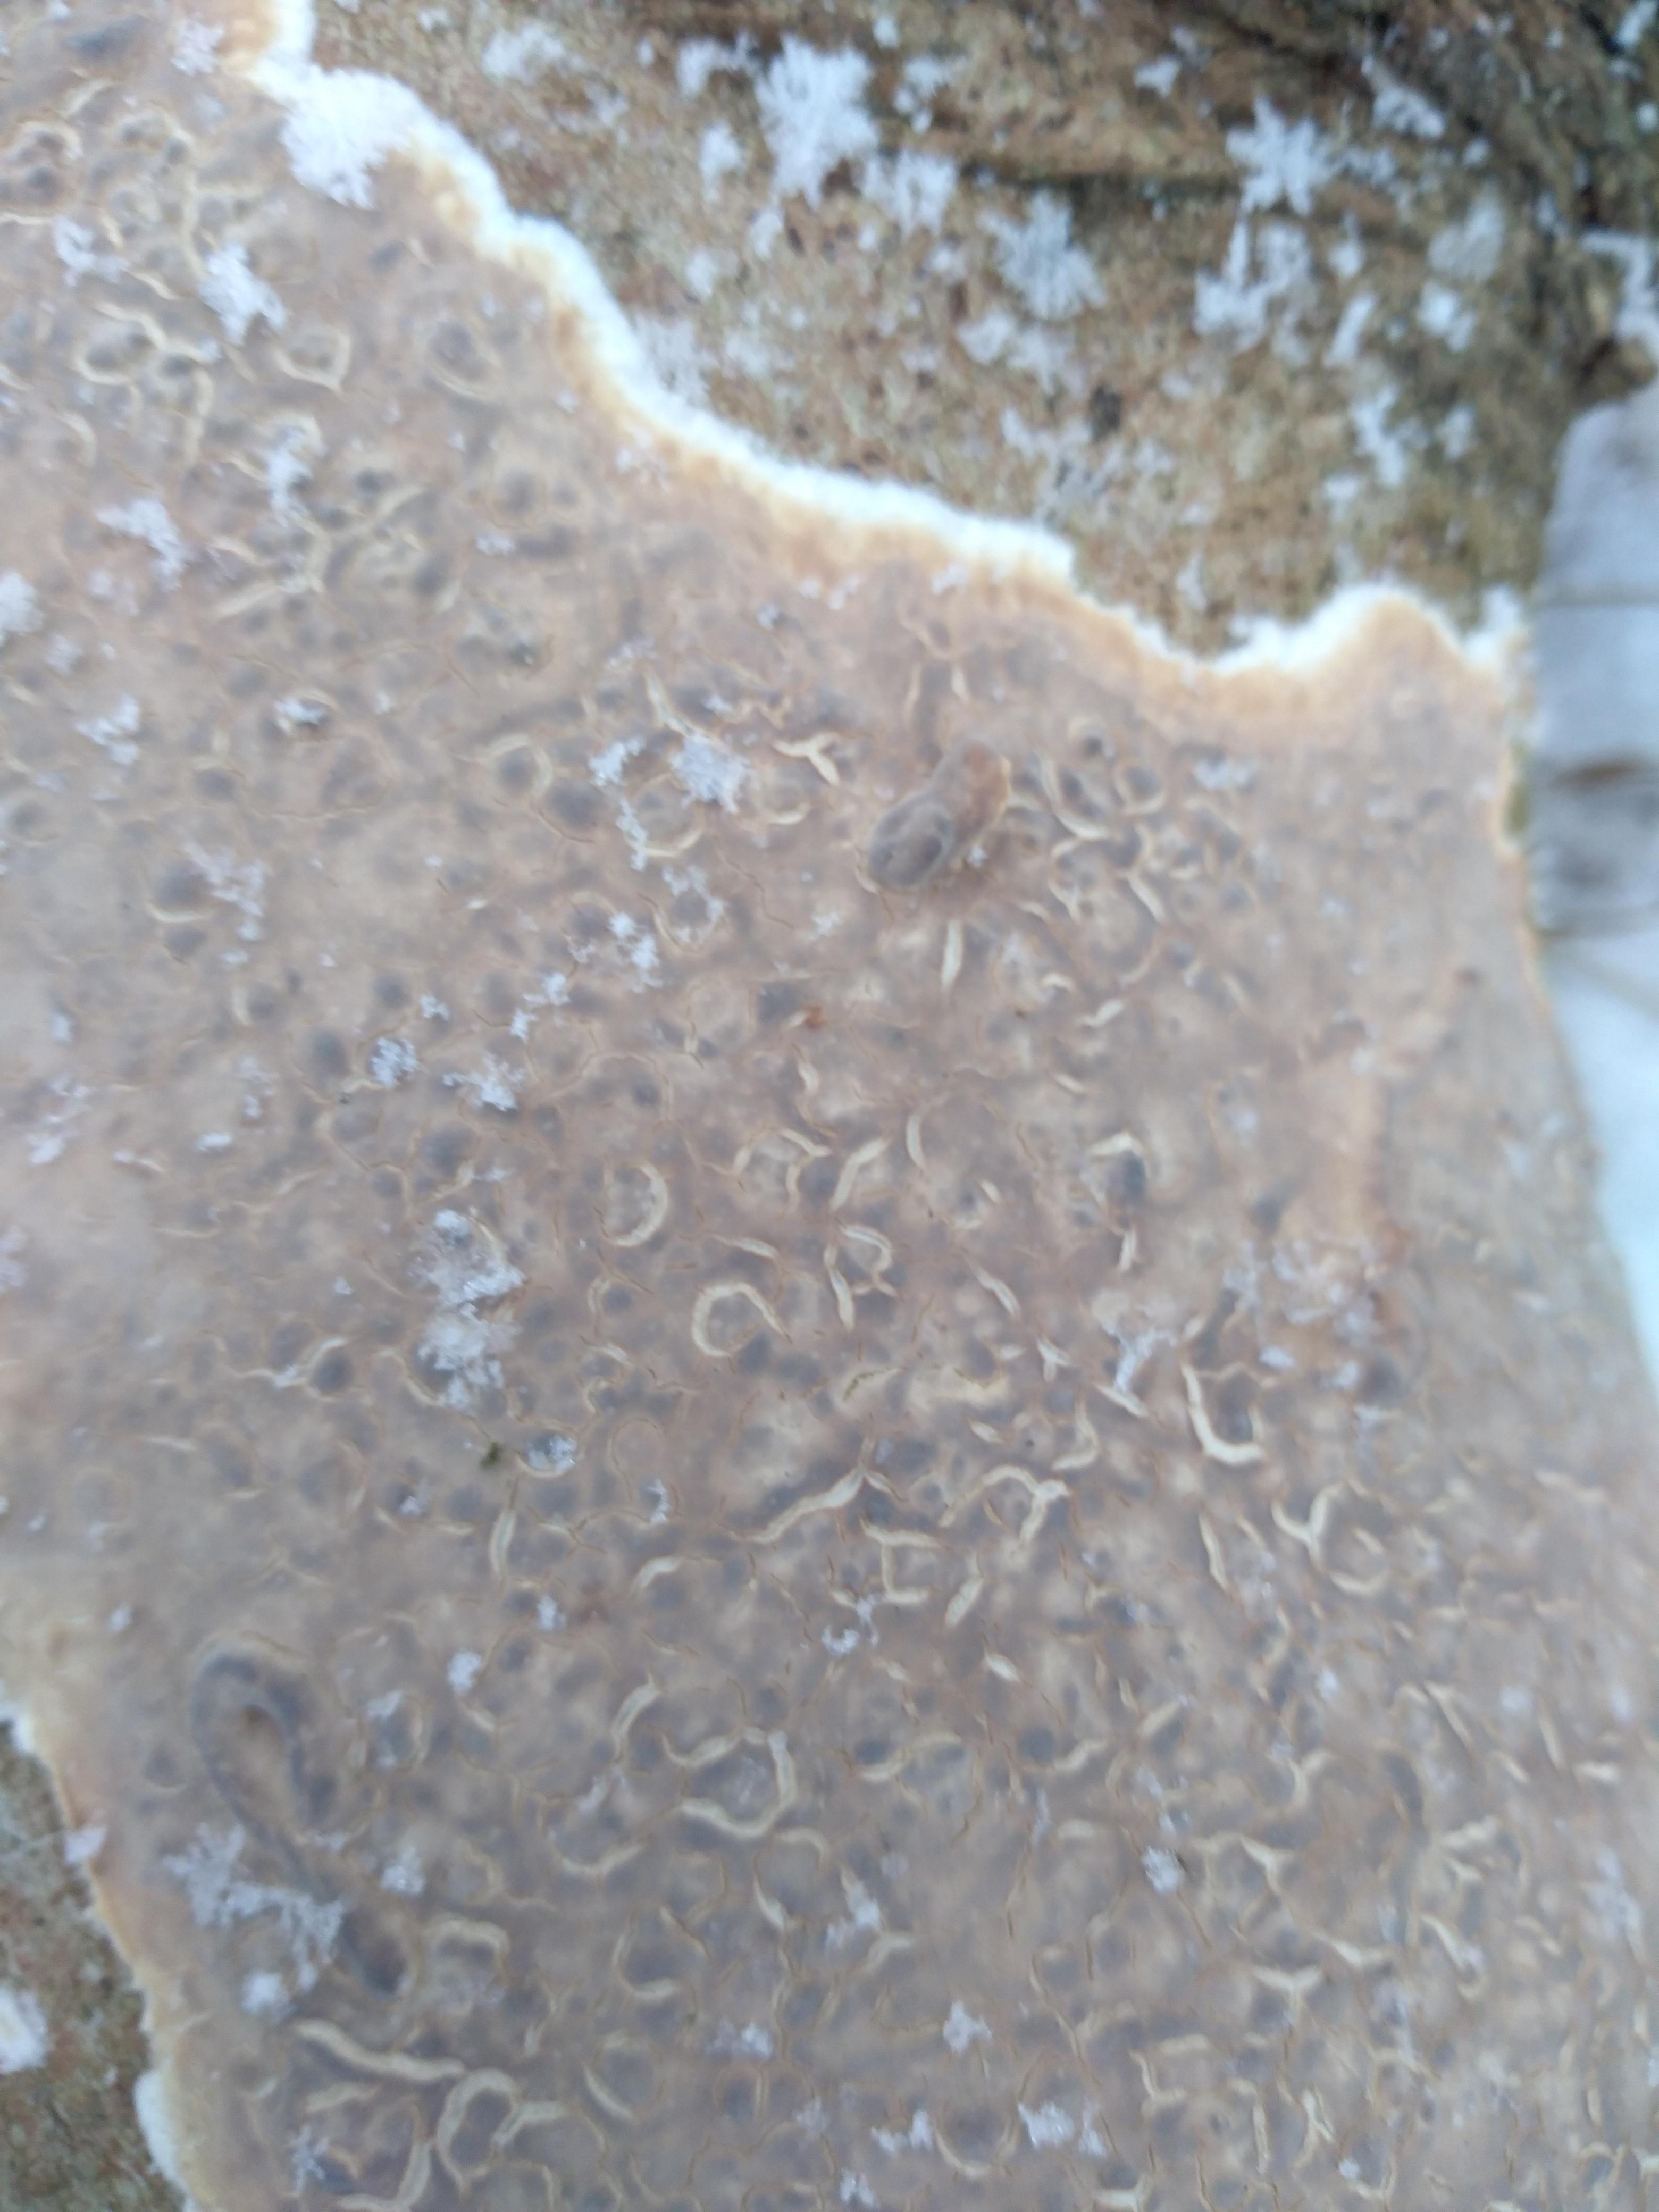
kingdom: Fungi
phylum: Basidiomycota
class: Agaricomycetes
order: Agaricales
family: Physalacriaceae
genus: Cylindrobasidium
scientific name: Cylindrobasidium evolvens
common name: sprækkehinde
